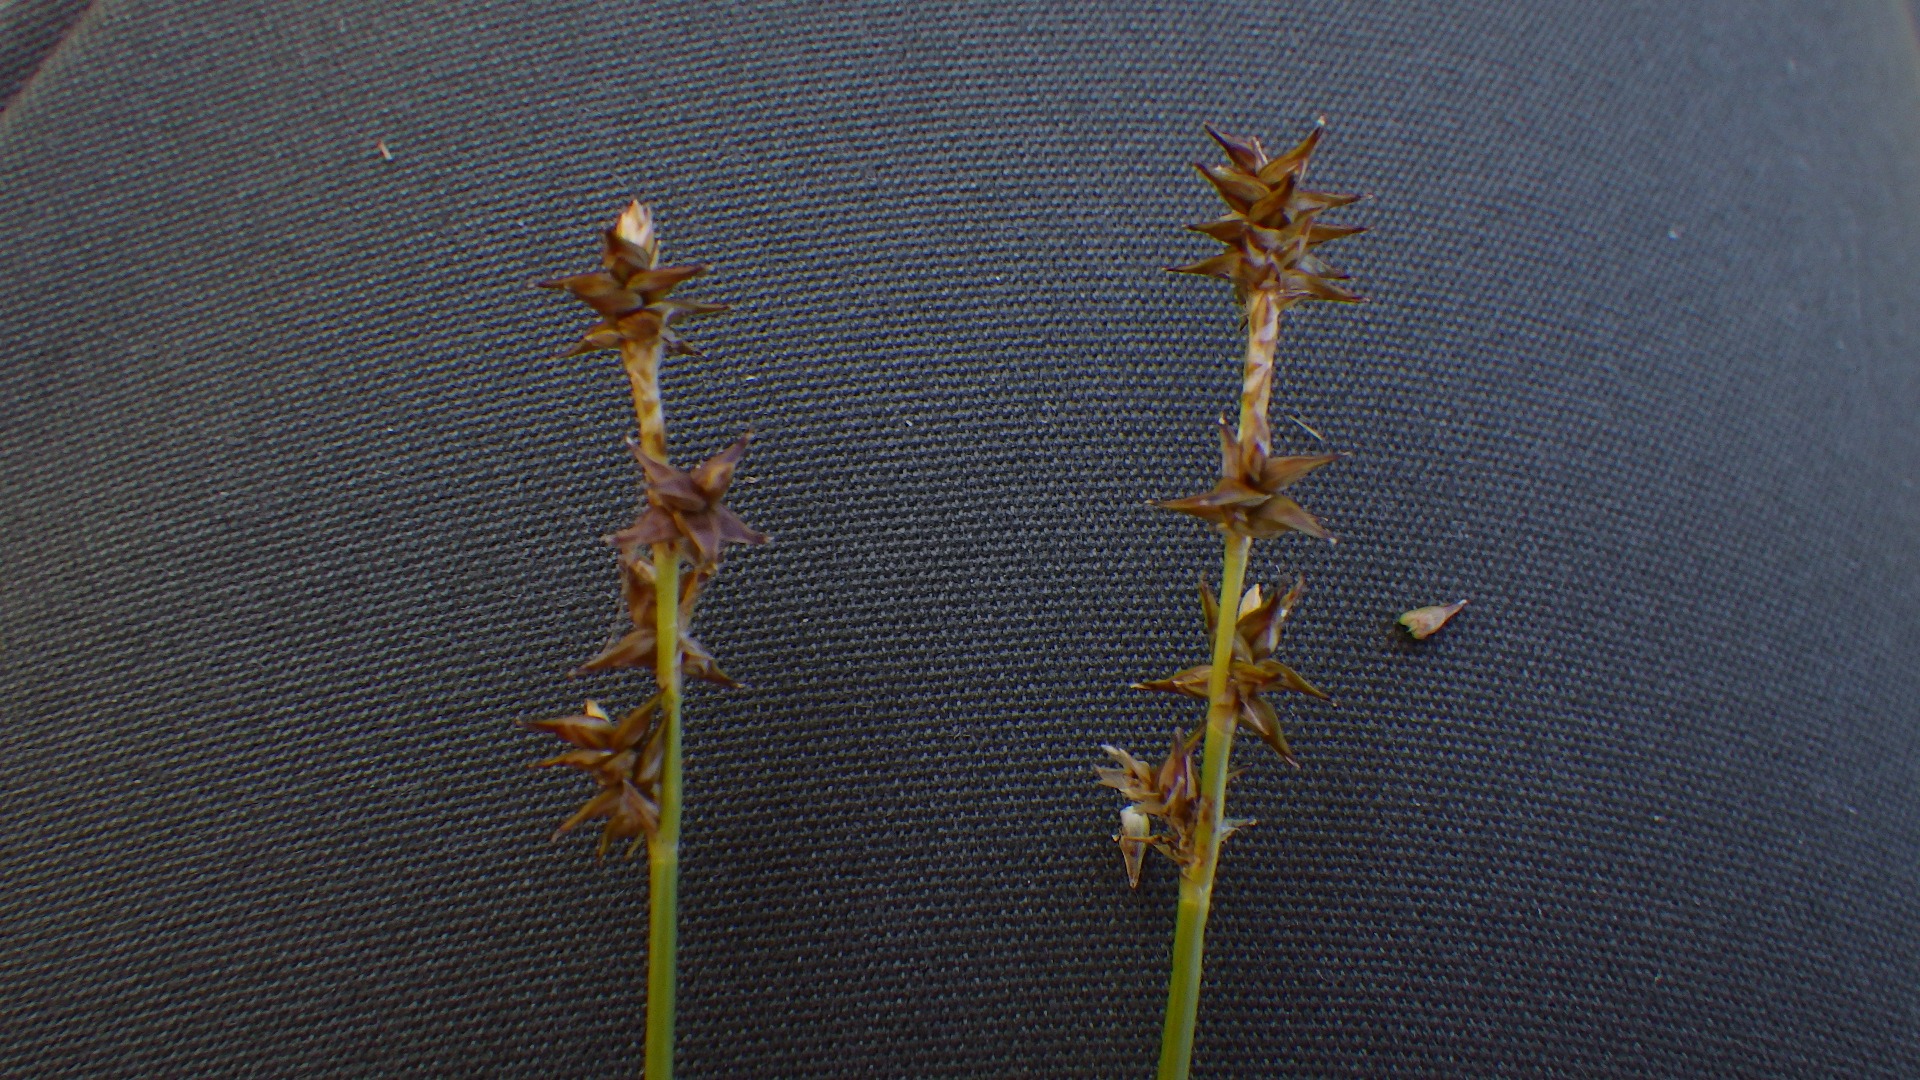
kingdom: Plantae
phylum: Tracheophyta
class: Liliopsida
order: Poales
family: Cyperaceae
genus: Carex
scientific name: Carex echinata
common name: Stjerne-star
